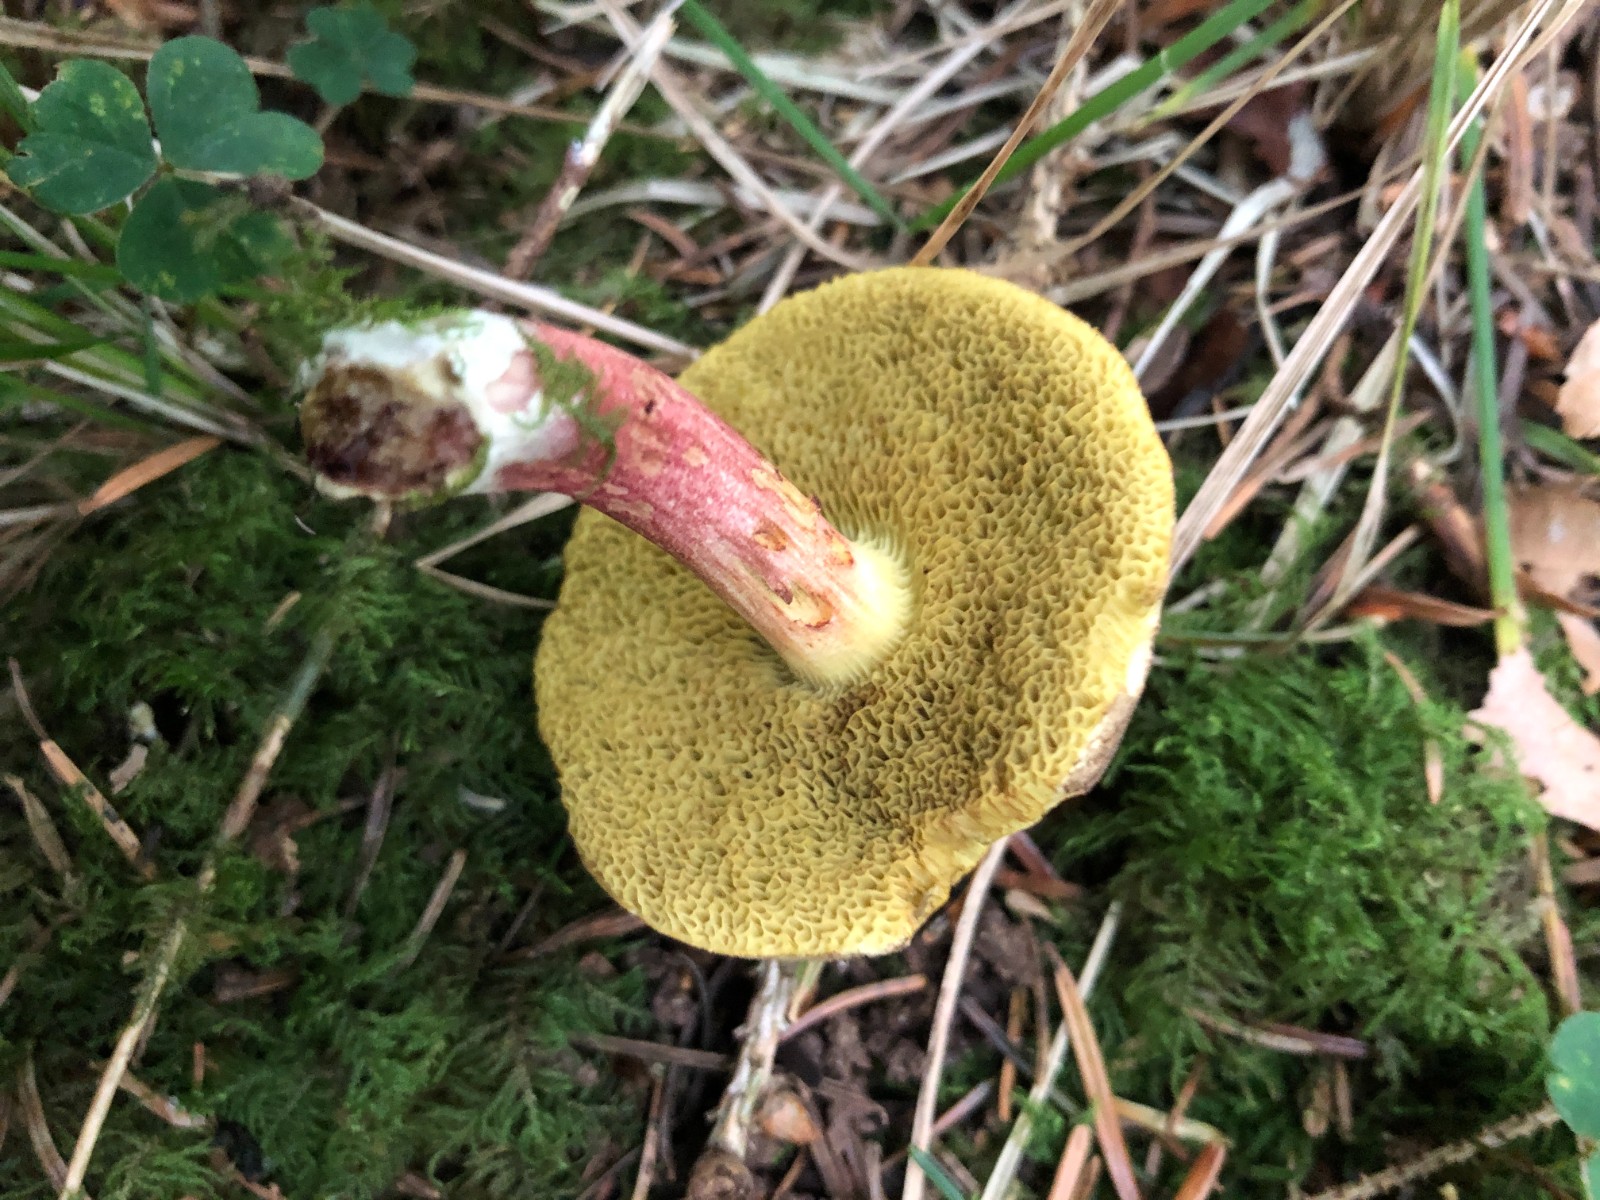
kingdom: Fungi
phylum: Basidiomycota
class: Agaricomycetes
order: Boletales
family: Boletaceae
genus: Xerocomellus
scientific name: Xerocomellus chrysenteron
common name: rødsprukken rørhat
